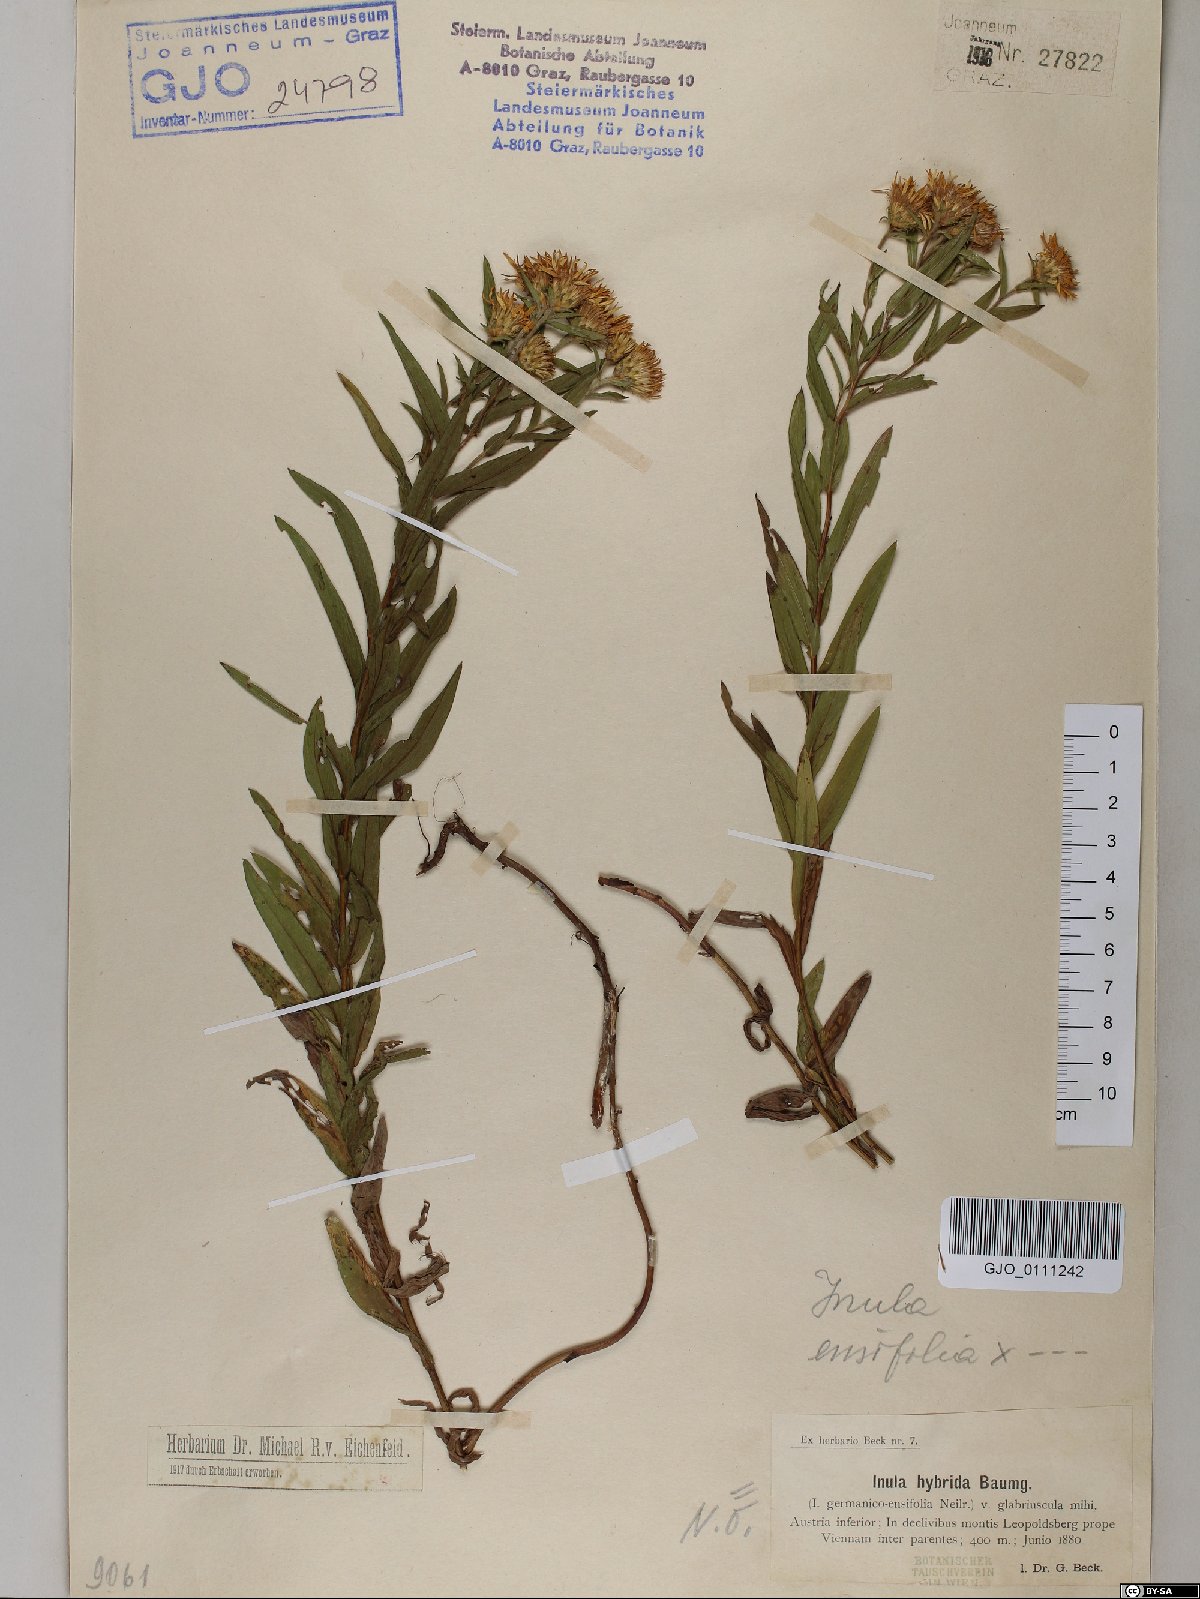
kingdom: Plantae
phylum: Tracheophyta
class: Magnoliopsida
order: Asterales
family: Asteraceae
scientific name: Asteraceae
